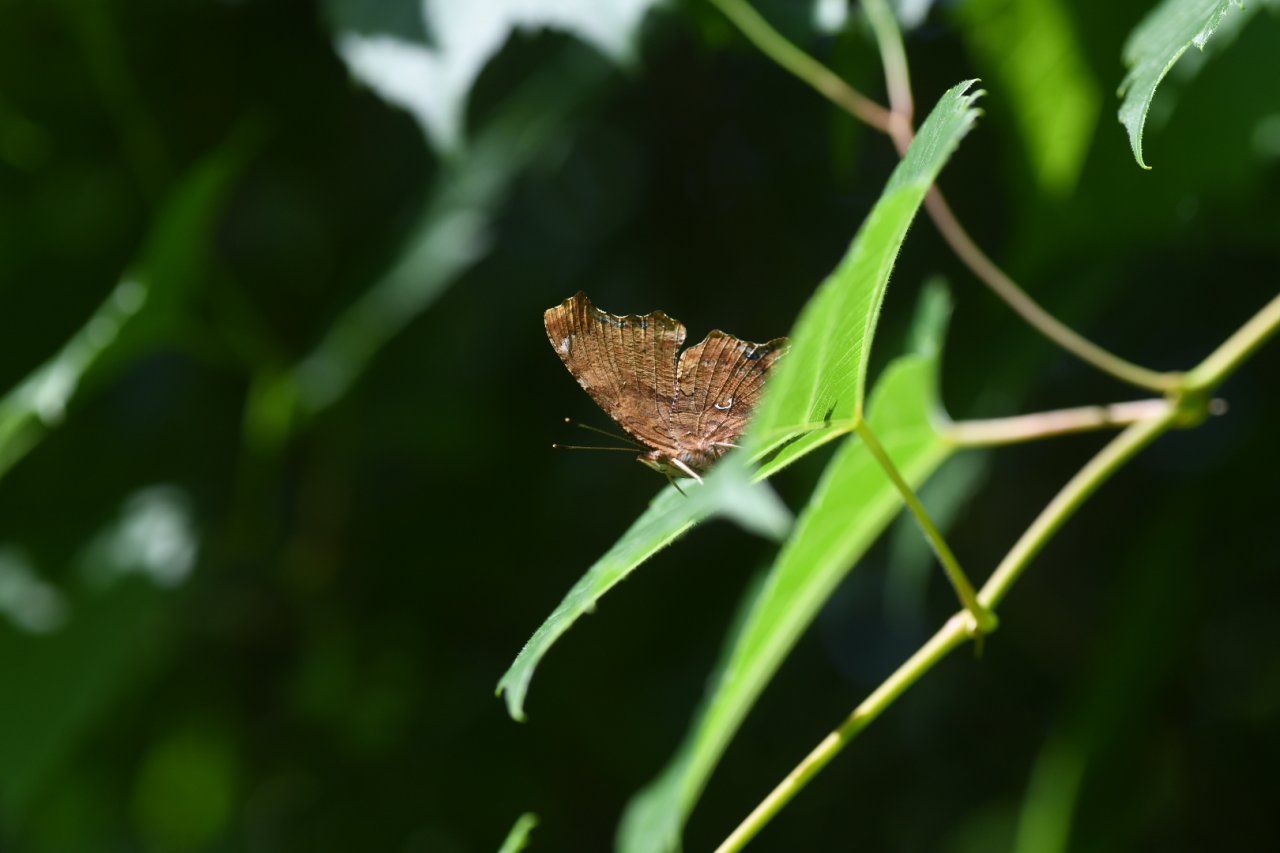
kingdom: Animalia
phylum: Arthropoda
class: Insecta
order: Lepidoptera
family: Nymphalidae
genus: Polygonia
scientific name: Polygonia comma
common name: Eastern Comma
